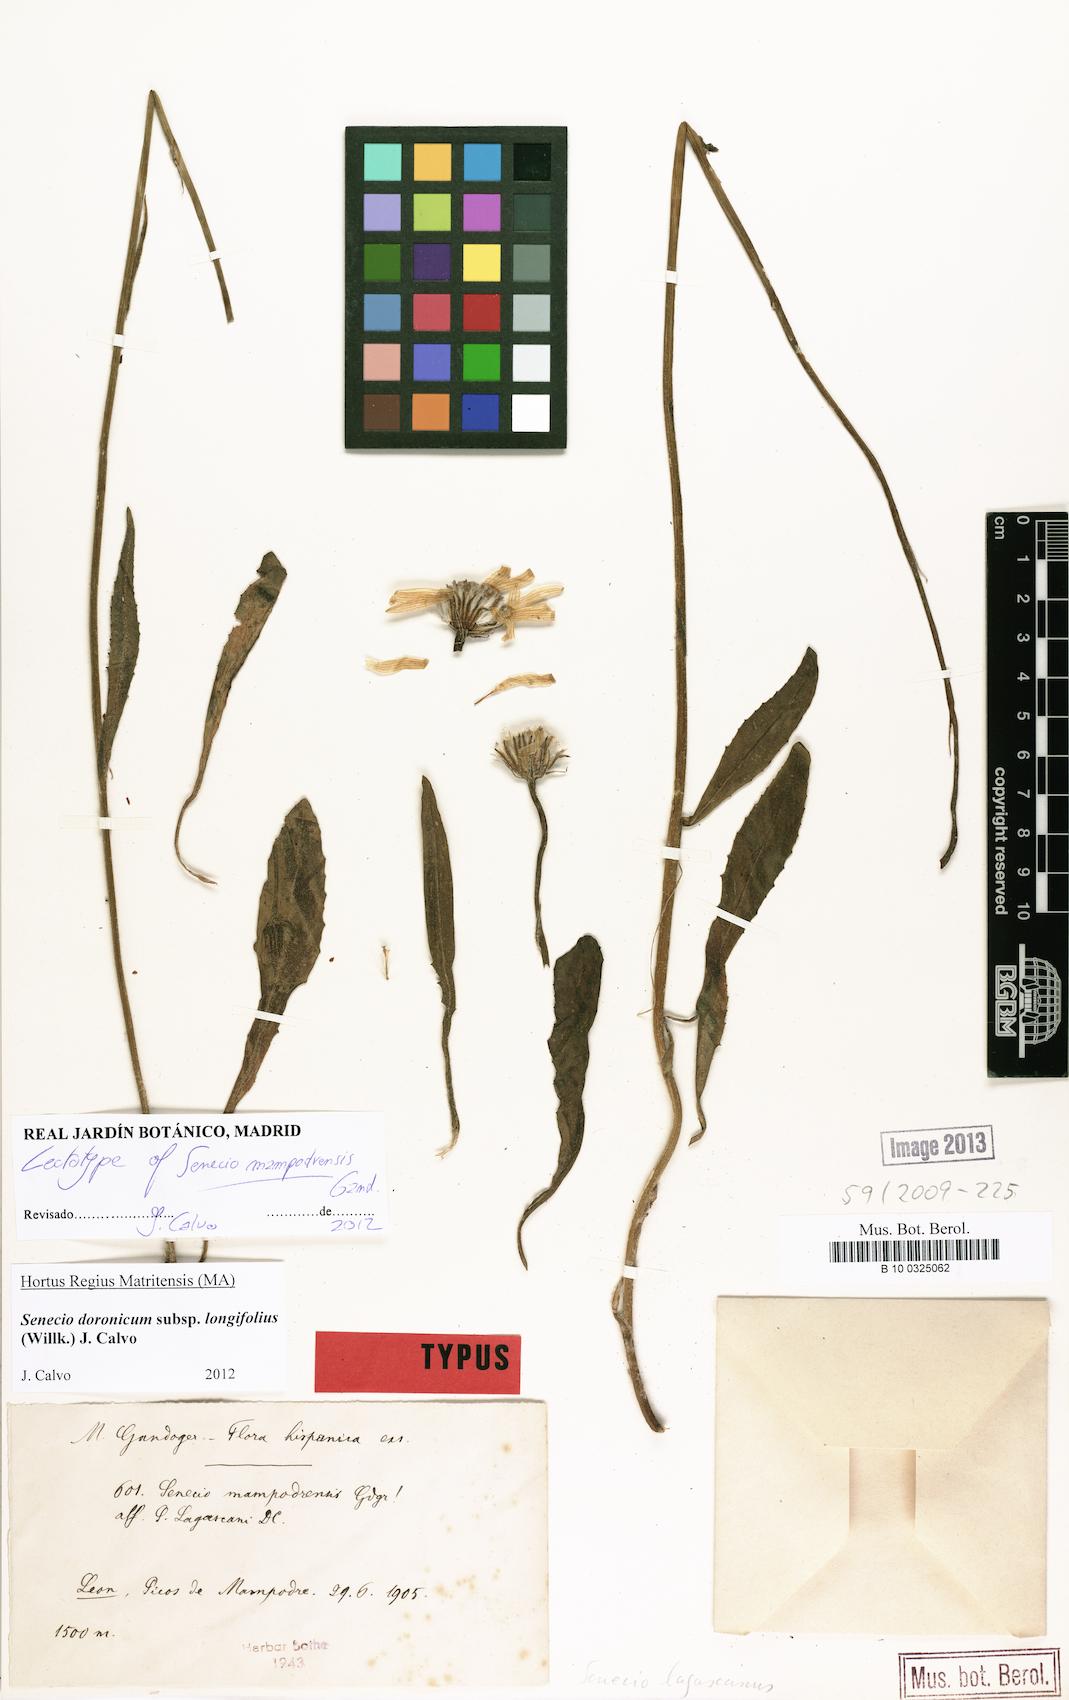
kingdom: Plantae
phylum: Tracheophyta
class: Magnoliopsida
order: Asterales
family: Asteraceae
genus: Senecio
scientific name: Senecio doronicum
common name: Chamois ragwort
